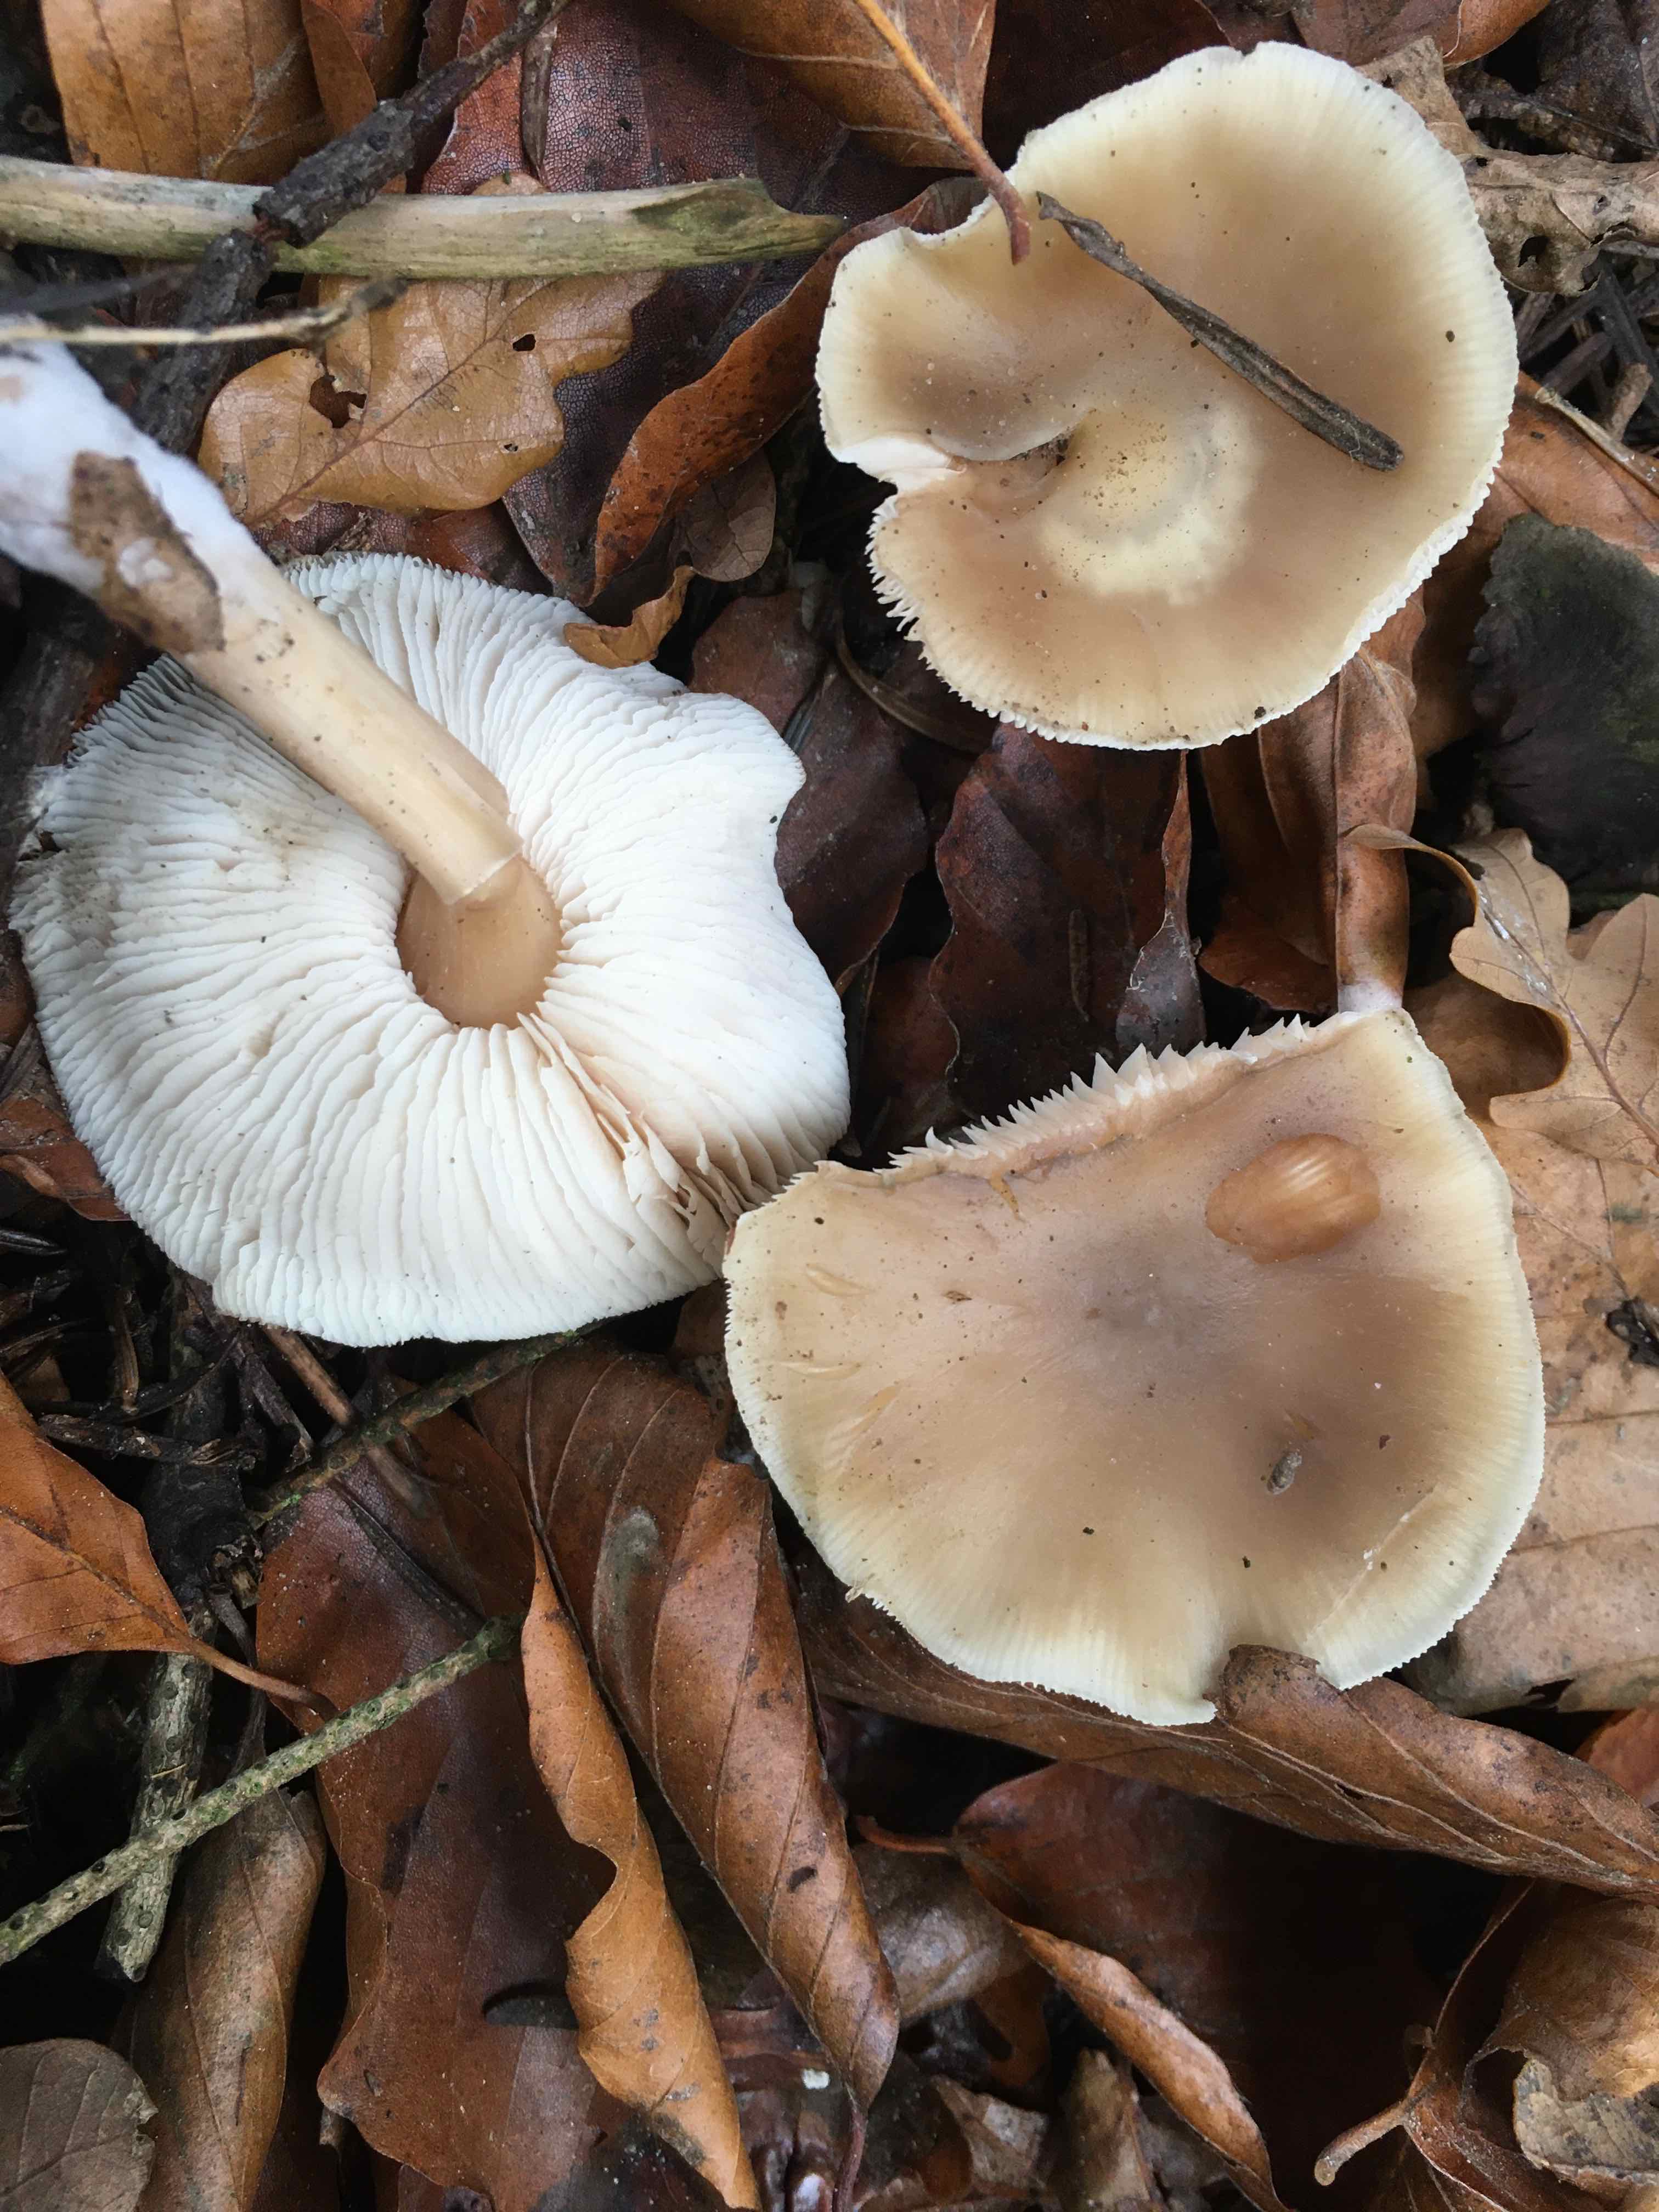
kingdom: Fungi
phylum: Basidiomycota
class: Agaricomycetes
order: Agaricales
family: Omphalotaceae
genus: Rhodocollybia
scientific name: Rhodocollybia asema
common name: horngrå fladhat
